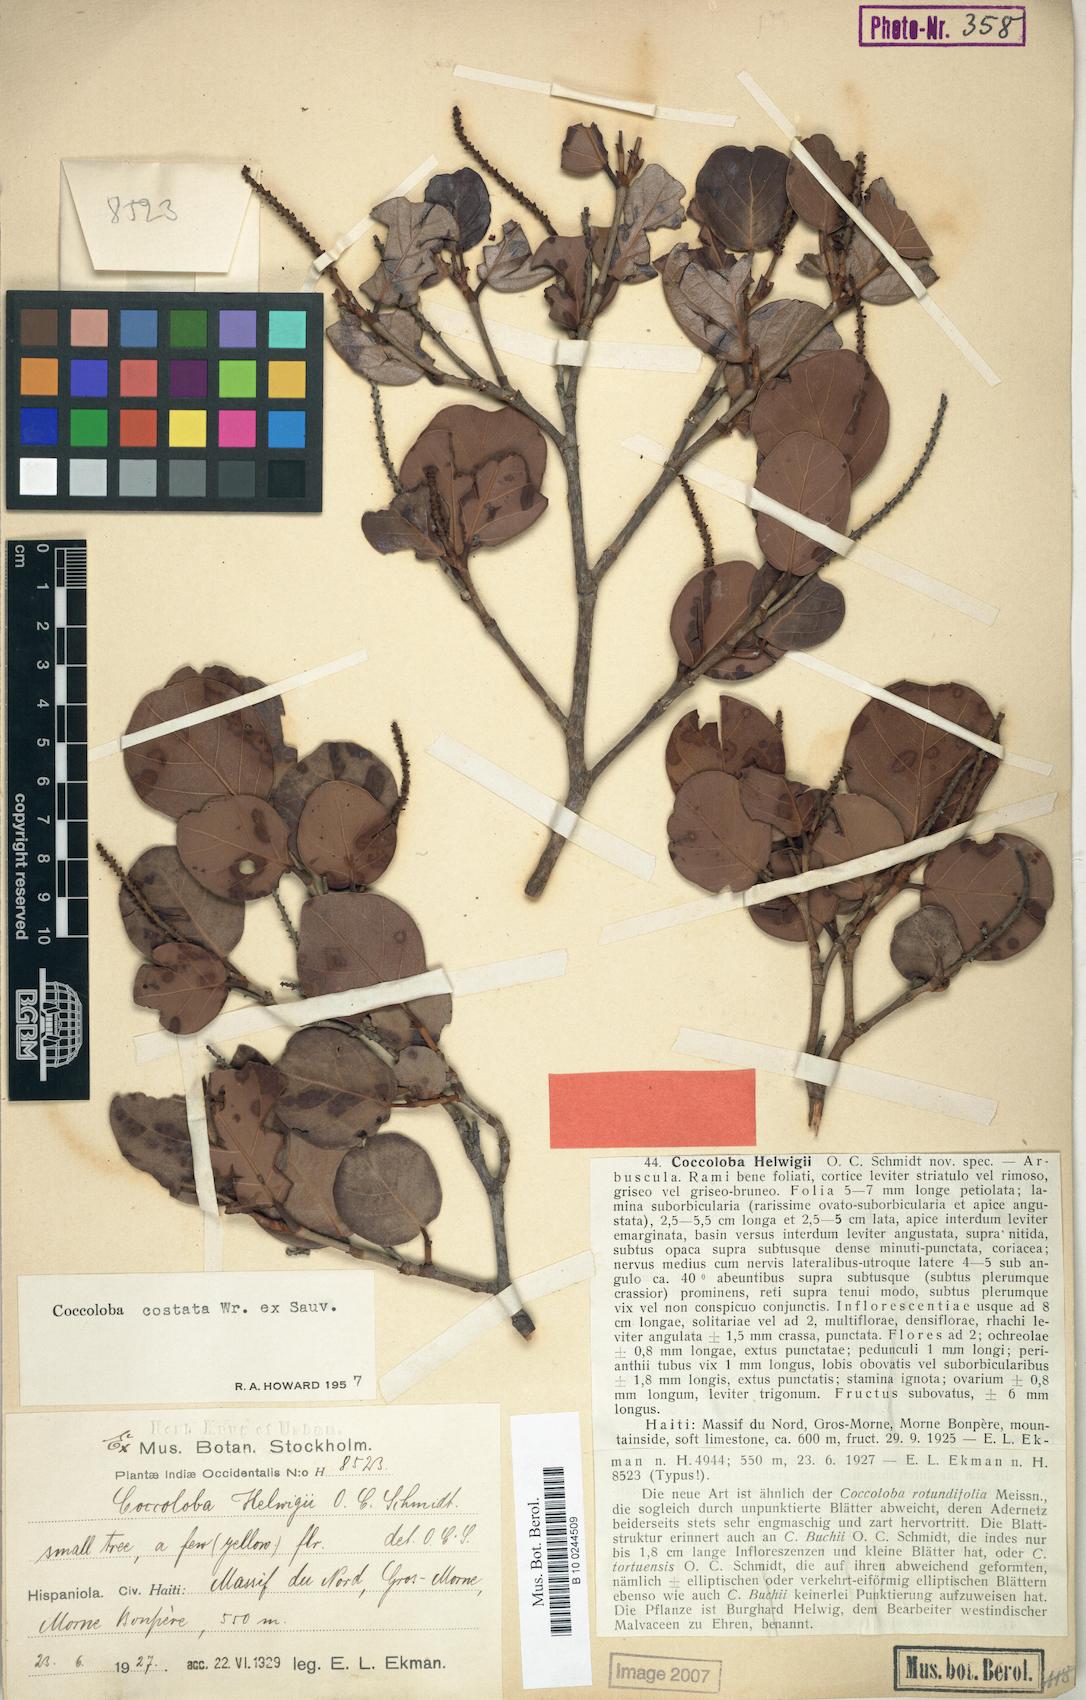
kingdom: Plantae
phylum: Tracheophyta
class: Magnoliopsida
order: Caryophyllales
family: Polygonaceae
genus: Coccoloba
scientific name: Coccoloba costata
